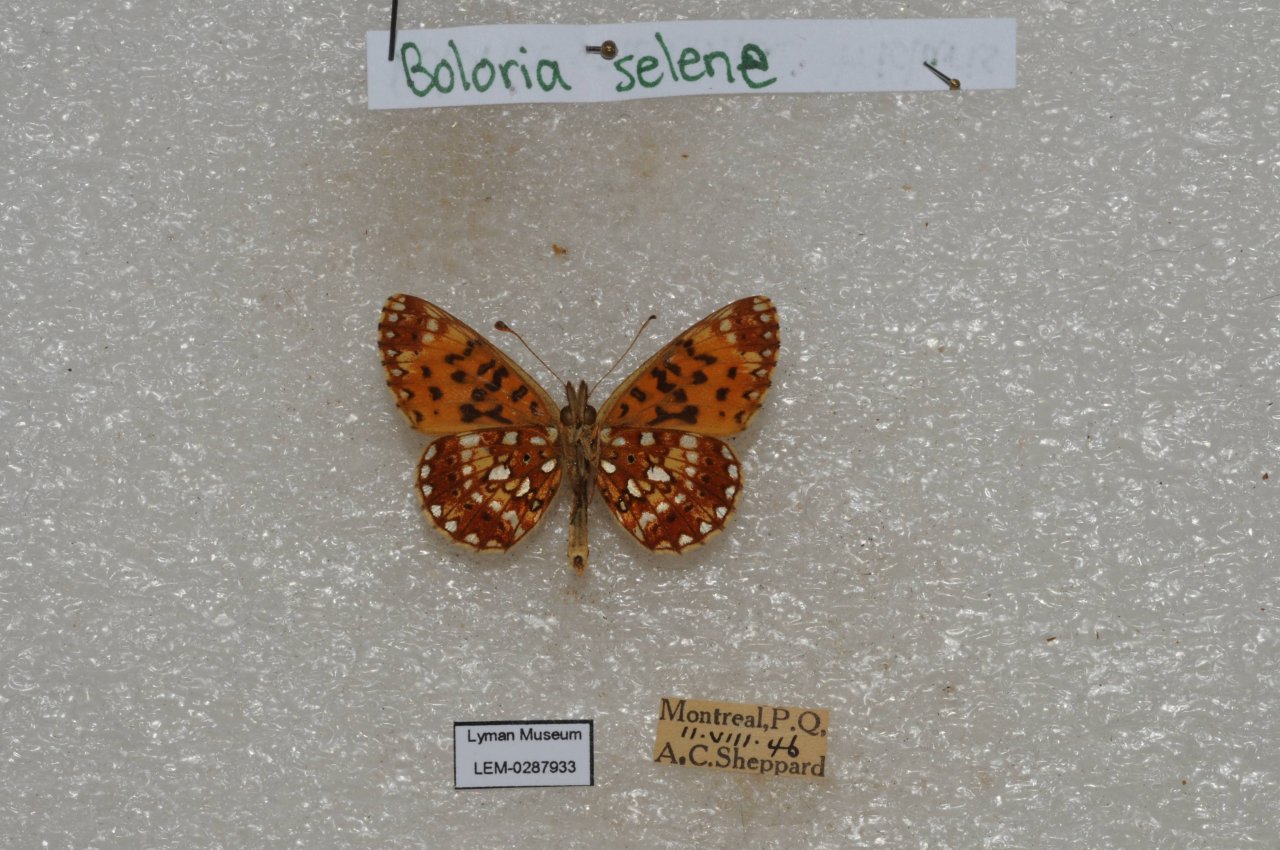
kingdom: Animalia
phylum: Arthropoda
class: Insecta
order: Lepidoptera
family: Nymphalidae
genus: Boloria
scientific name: Boloria selene
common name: Silver-bordered Fritillary
